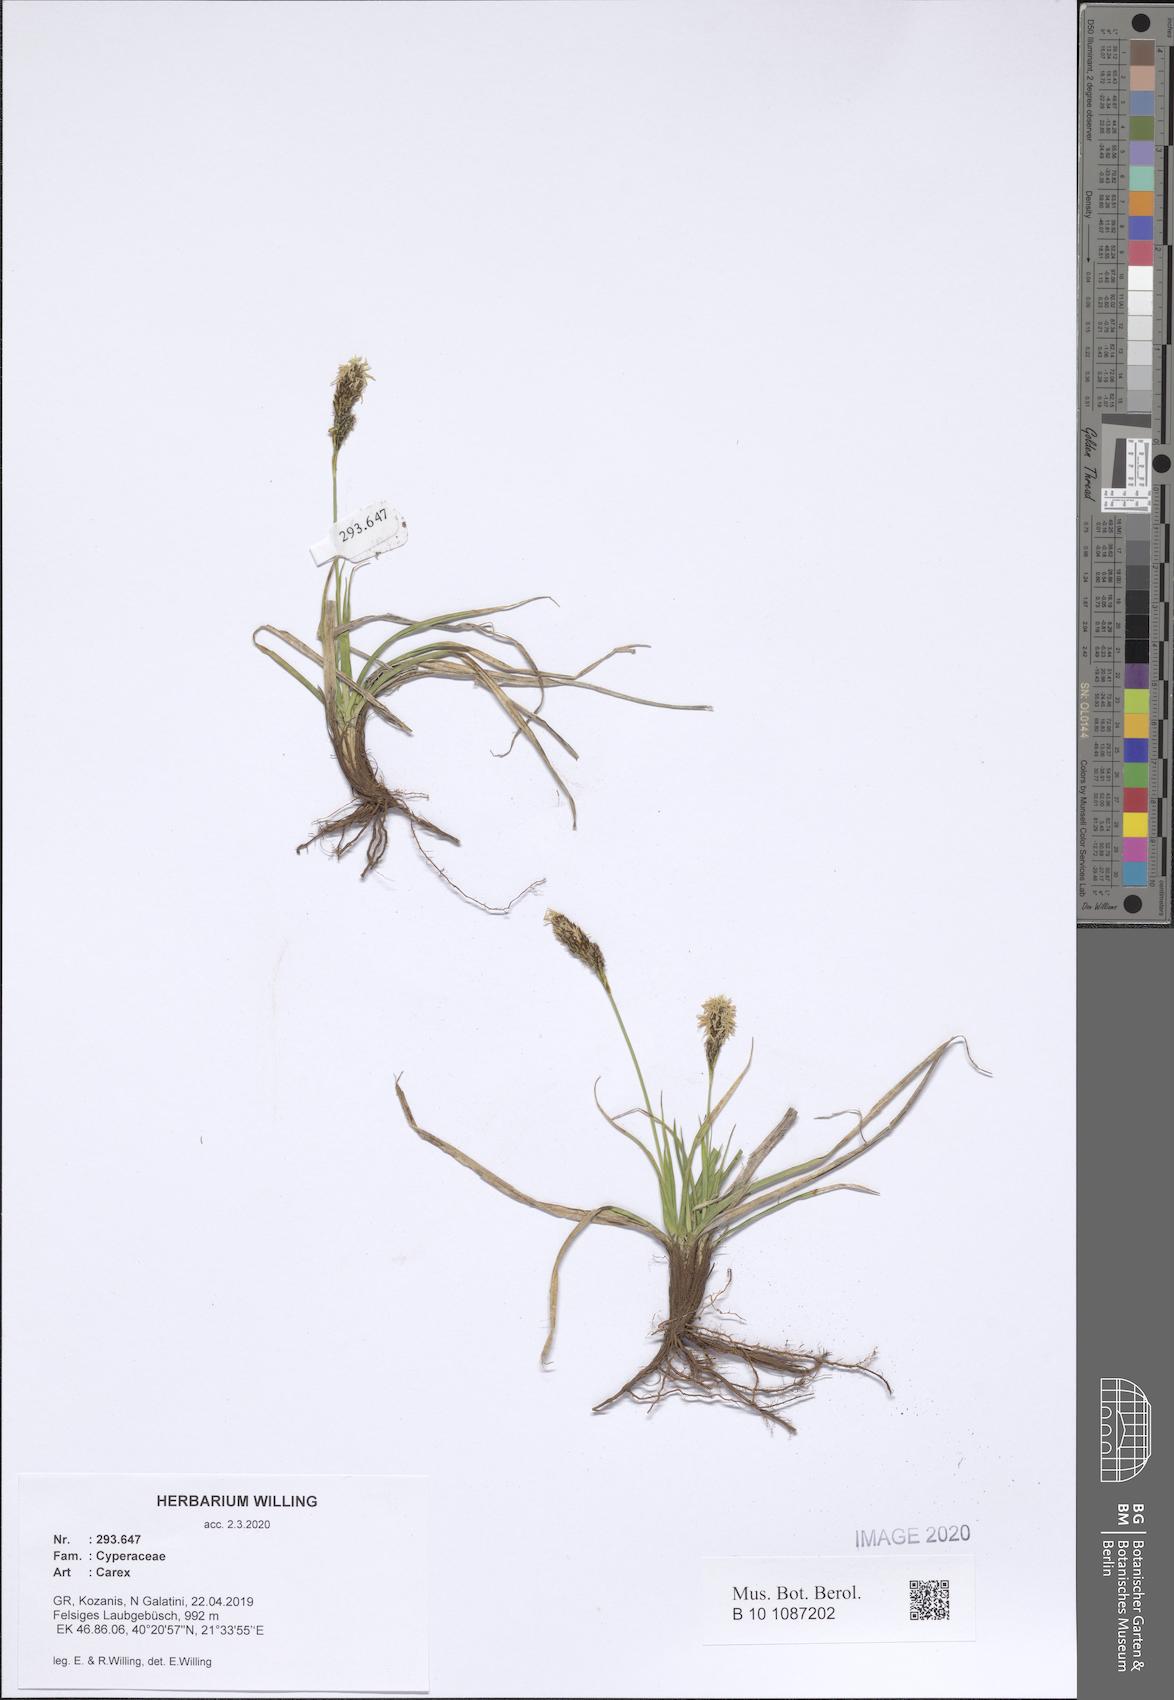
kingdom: Plantae
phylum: Tracheophyta
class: Liliopsida
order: Poales
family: Cyperaceae
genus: Carex
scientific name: Carex
